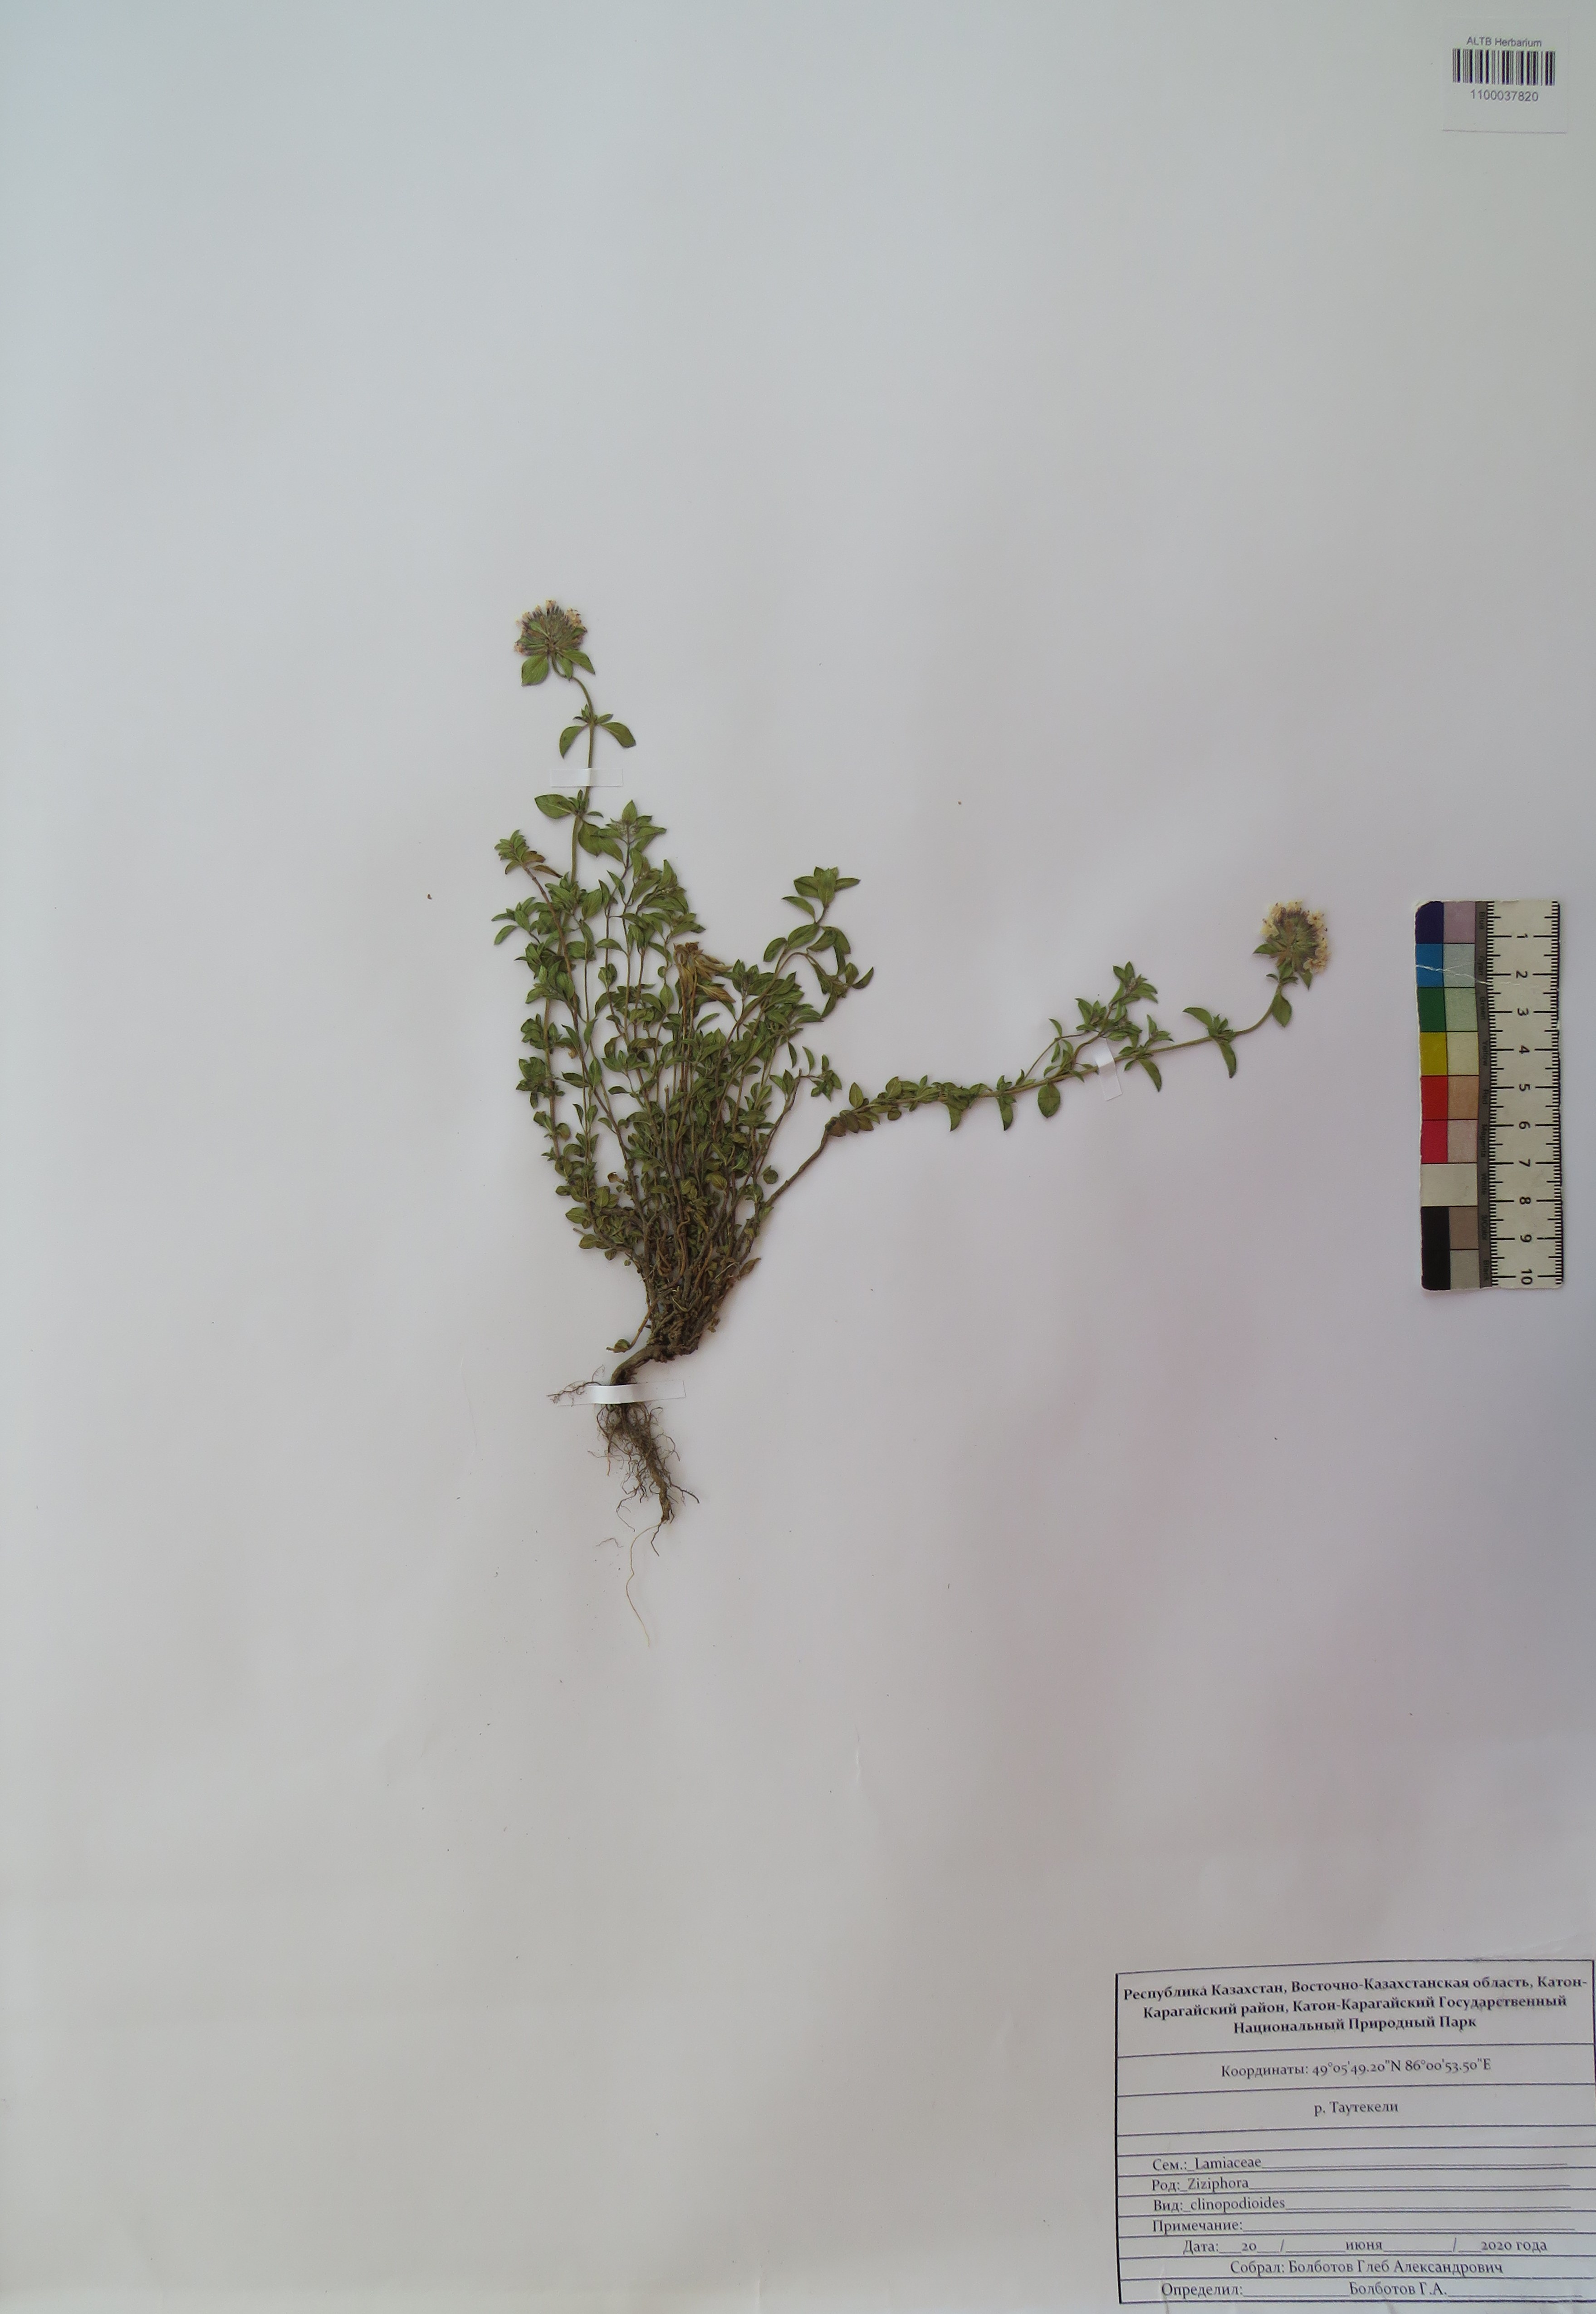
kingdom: Plantae
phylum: Tracheophyta
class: Magnoliopsida
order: Lamiales
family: Lamiaceae
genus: Ziziphora
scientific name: Ziziphora clinopodioides
